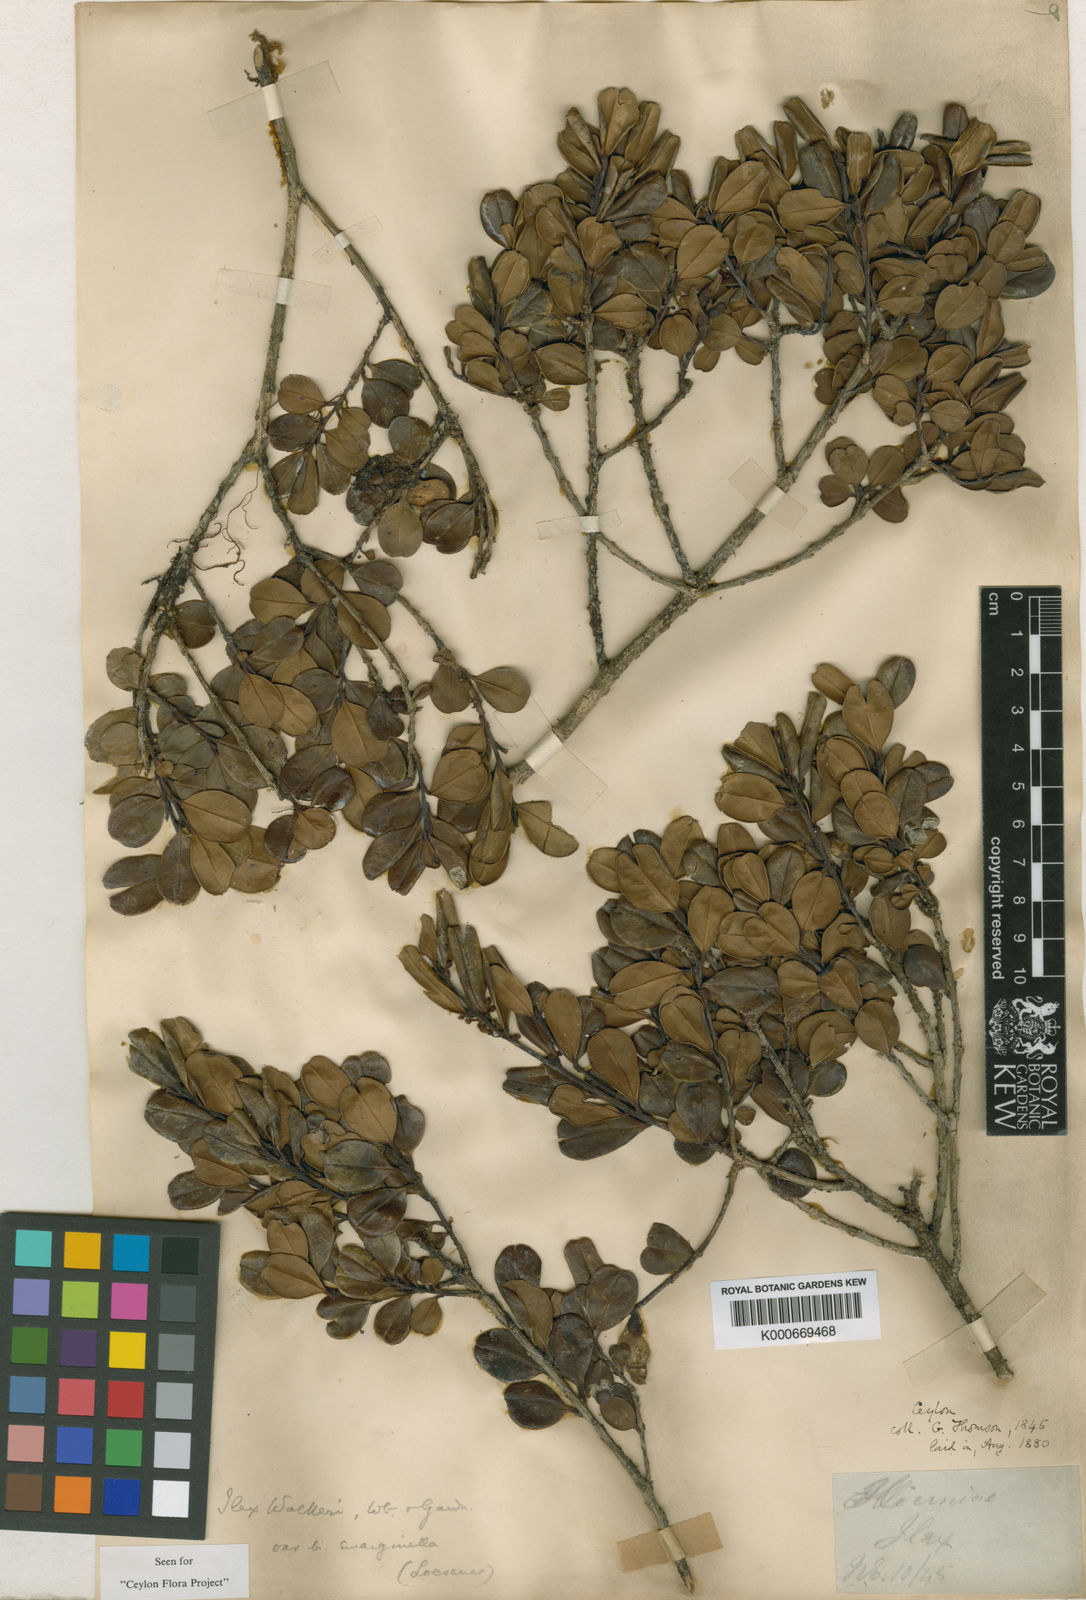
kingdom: Plantae
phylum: Tracheophyta
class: Magnoliopsida
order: Aquifoliales
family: Aquifoliaceae
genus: Ilex
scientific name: Ilex walkeri
